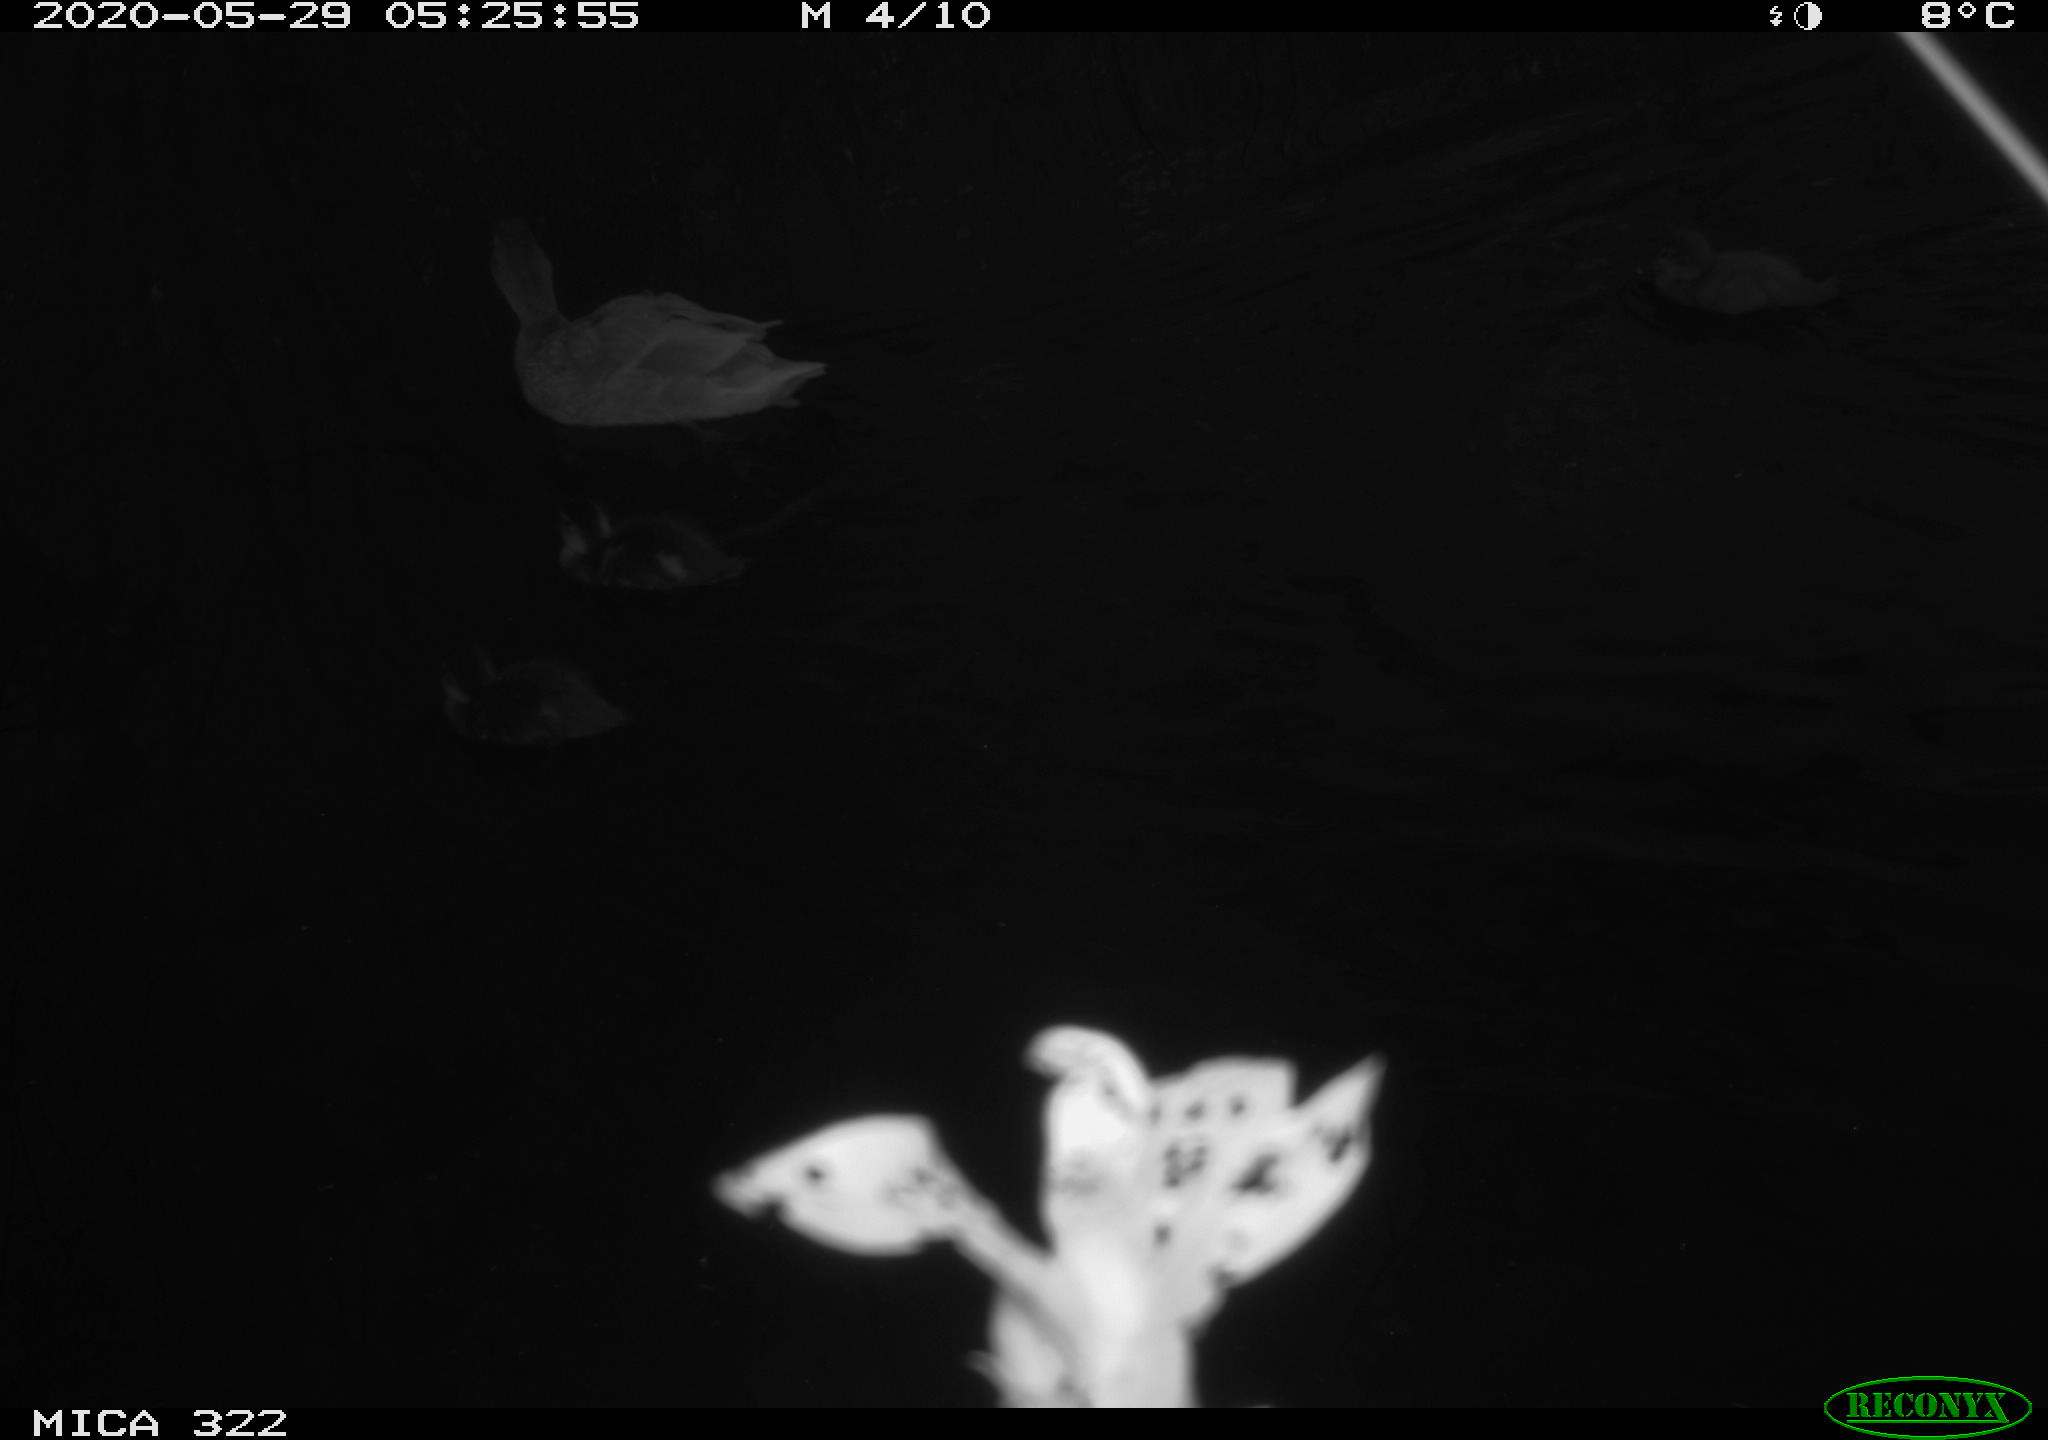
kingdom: Animalia
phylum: Chordata
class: Aves
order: Anseriformes
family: Anatidae
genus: Anas
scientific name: Anas platyrhynchos
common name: Mallard
